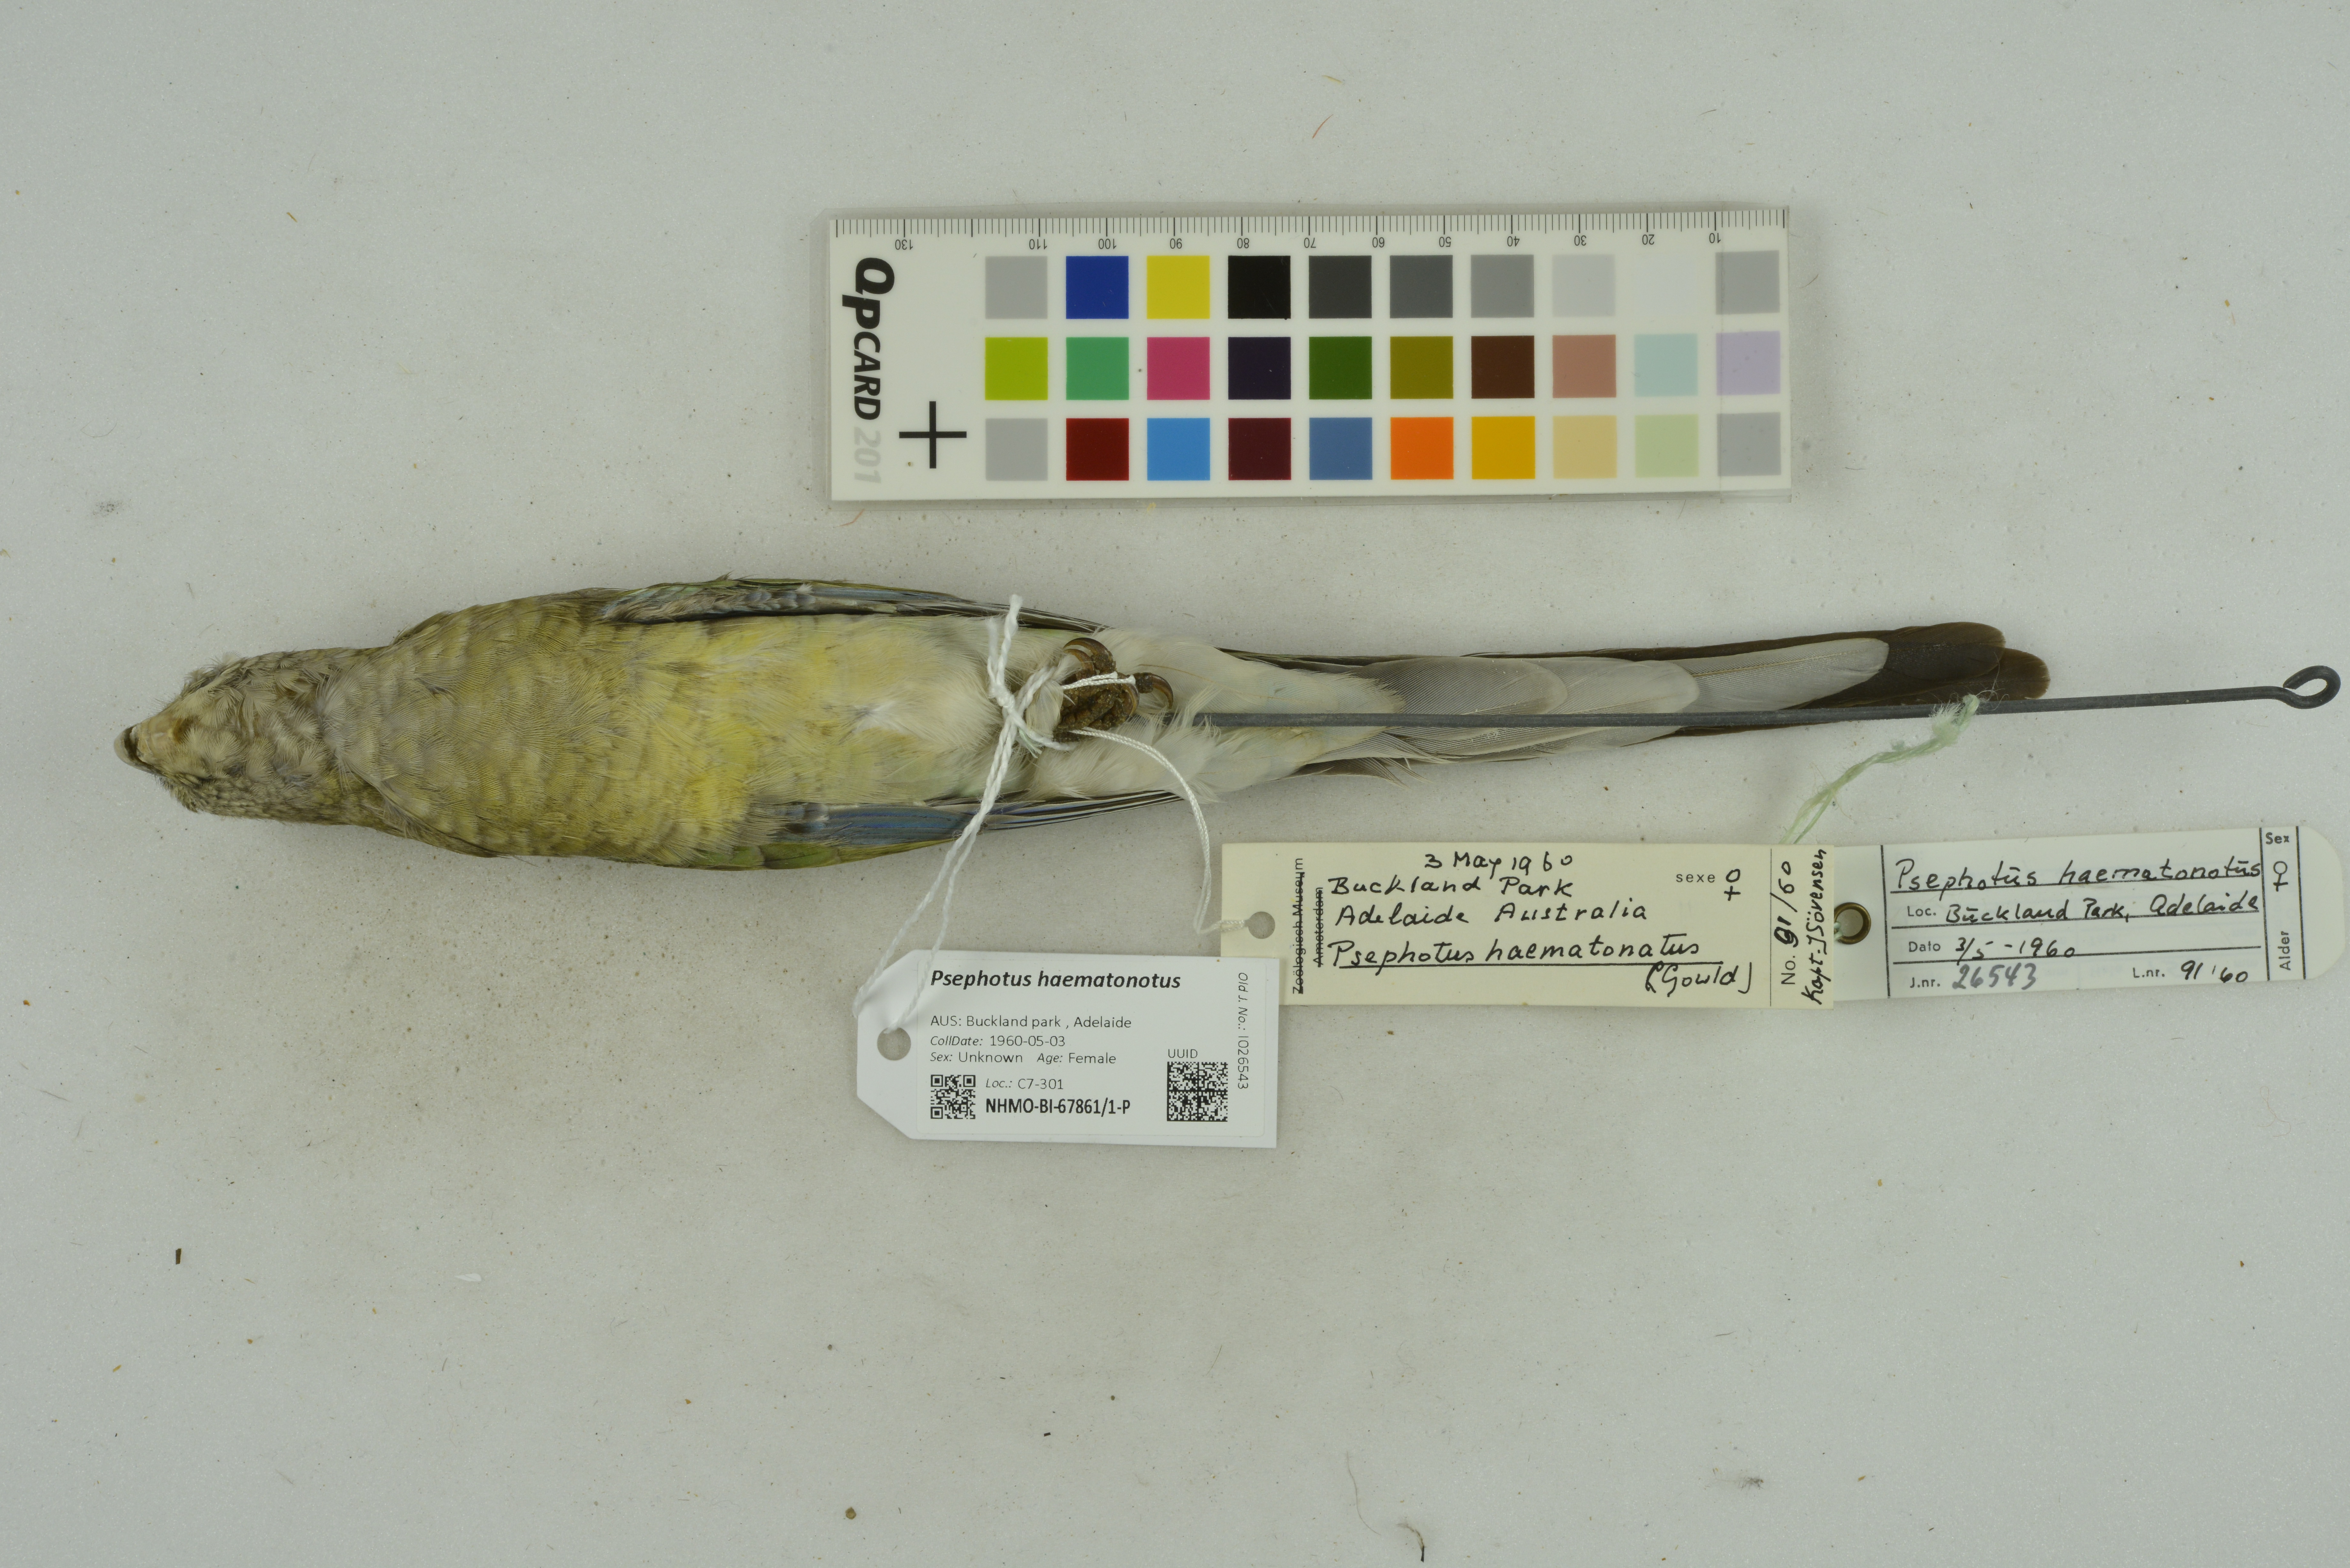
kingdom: Animalia
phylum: Chordata
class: Aves
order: Psittaciformes
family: Psittacidae
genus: Psephotus
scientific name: Psephotus haematonotus
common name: Red-rumped parrot
